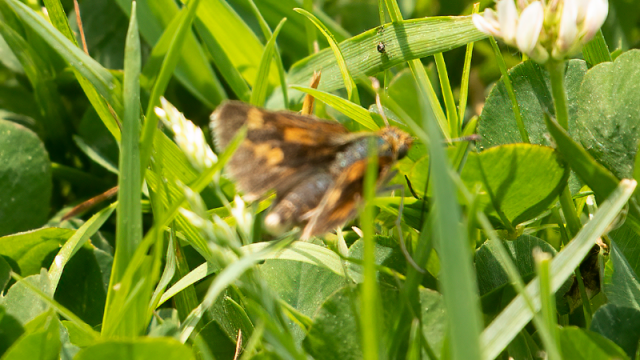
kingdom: Animalia
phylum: Arthropoda
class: Insecta
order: Lepidoptera
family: Hesperiidae
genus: Polites
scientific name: Polites
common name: Long Dash Skipper
